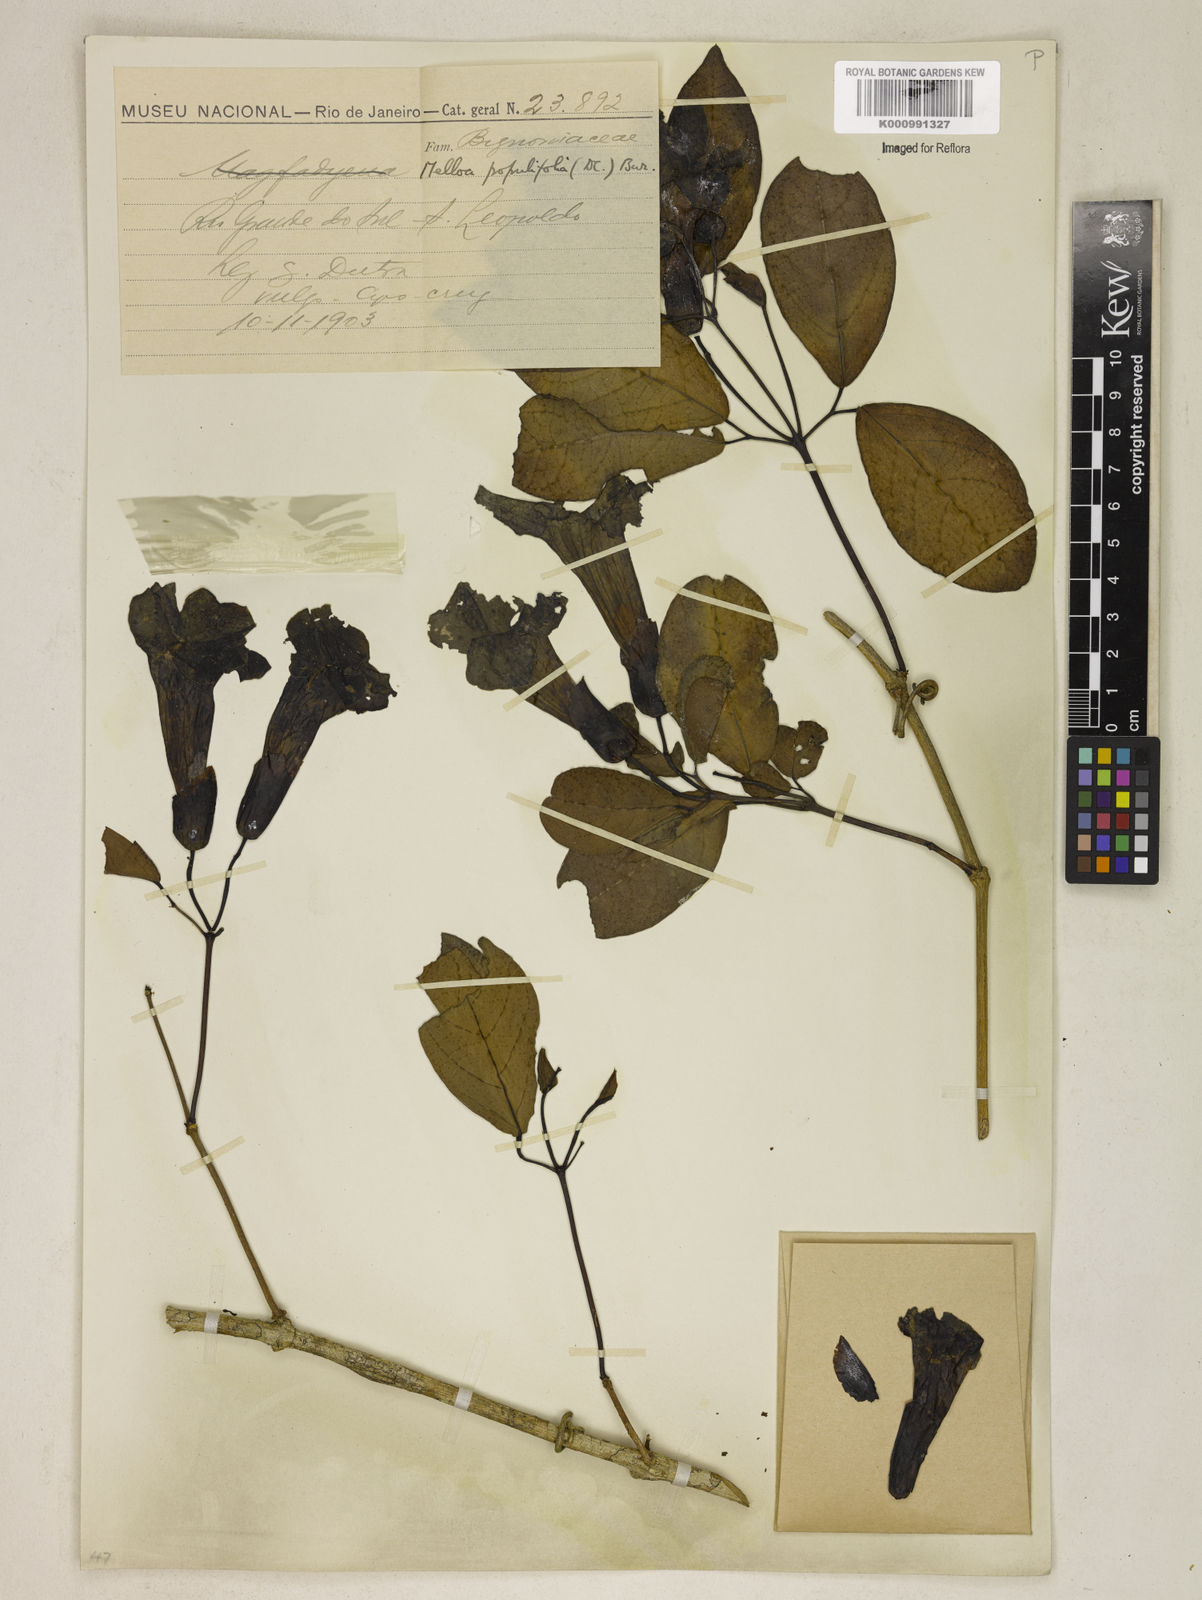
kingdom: Plantae
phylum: Tracheophyta
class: Magnoliopsida
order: Lamiales
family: Bignoniaceae
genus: Dolichandra
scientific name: Dolichandra quadrivalvis
